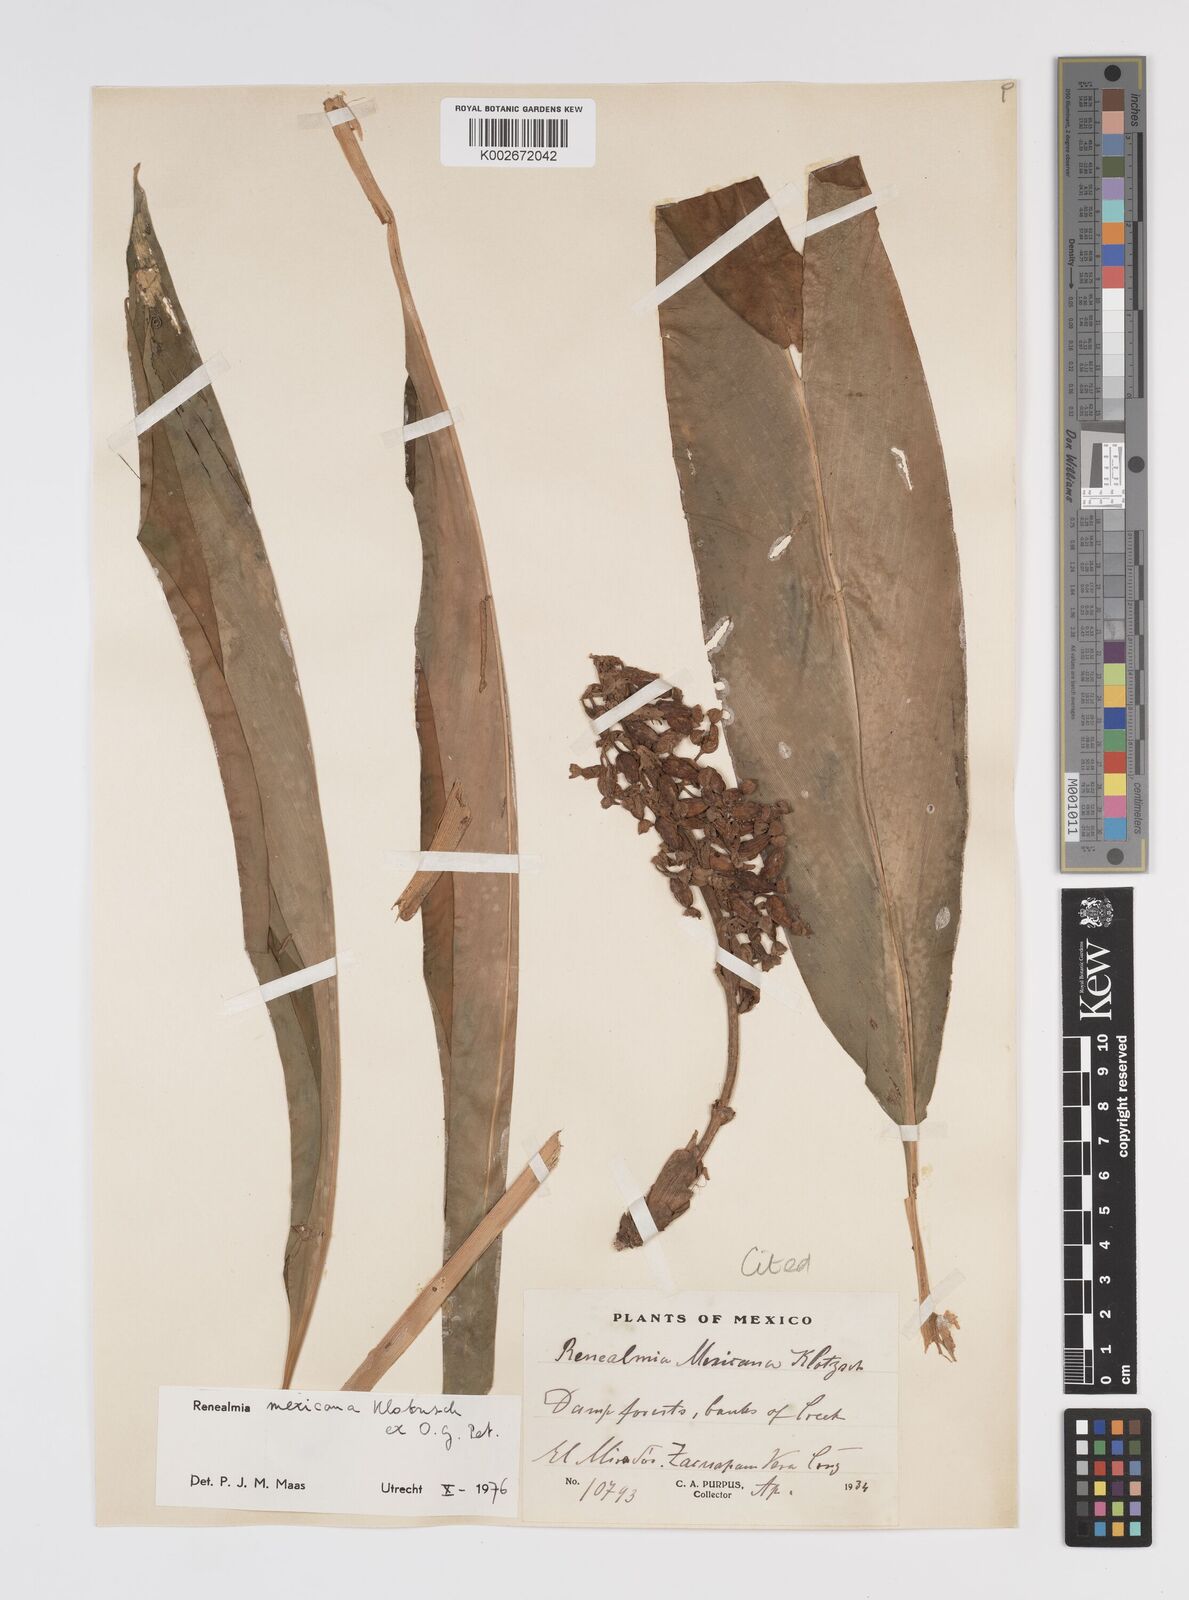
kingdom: Plantae
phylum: Tracheophyta
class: Liliopsida
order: Zingiberales
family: Zingiberaceae
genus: Renealmia
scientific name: Renealmia mexicana
